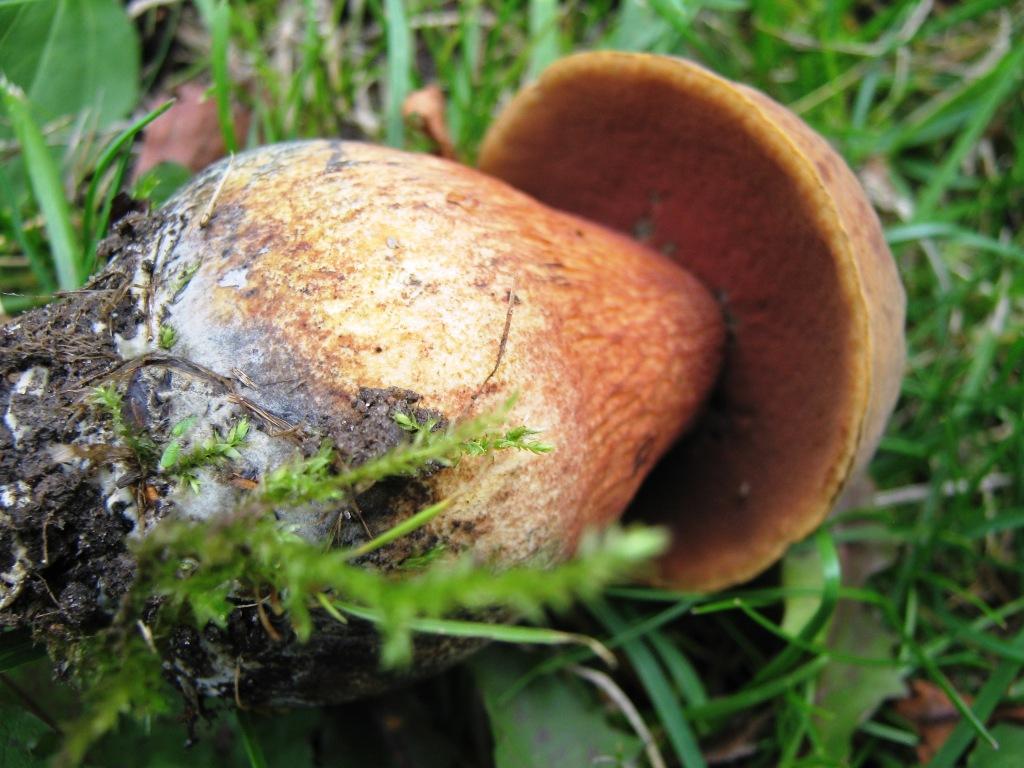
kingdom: Fungi
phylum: Basidiomycota
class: Agaricomycetes
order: Boletales
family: Boletaceae
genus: Suillellus
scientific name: Suillellus luridus
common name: netstokket indigorørhat
